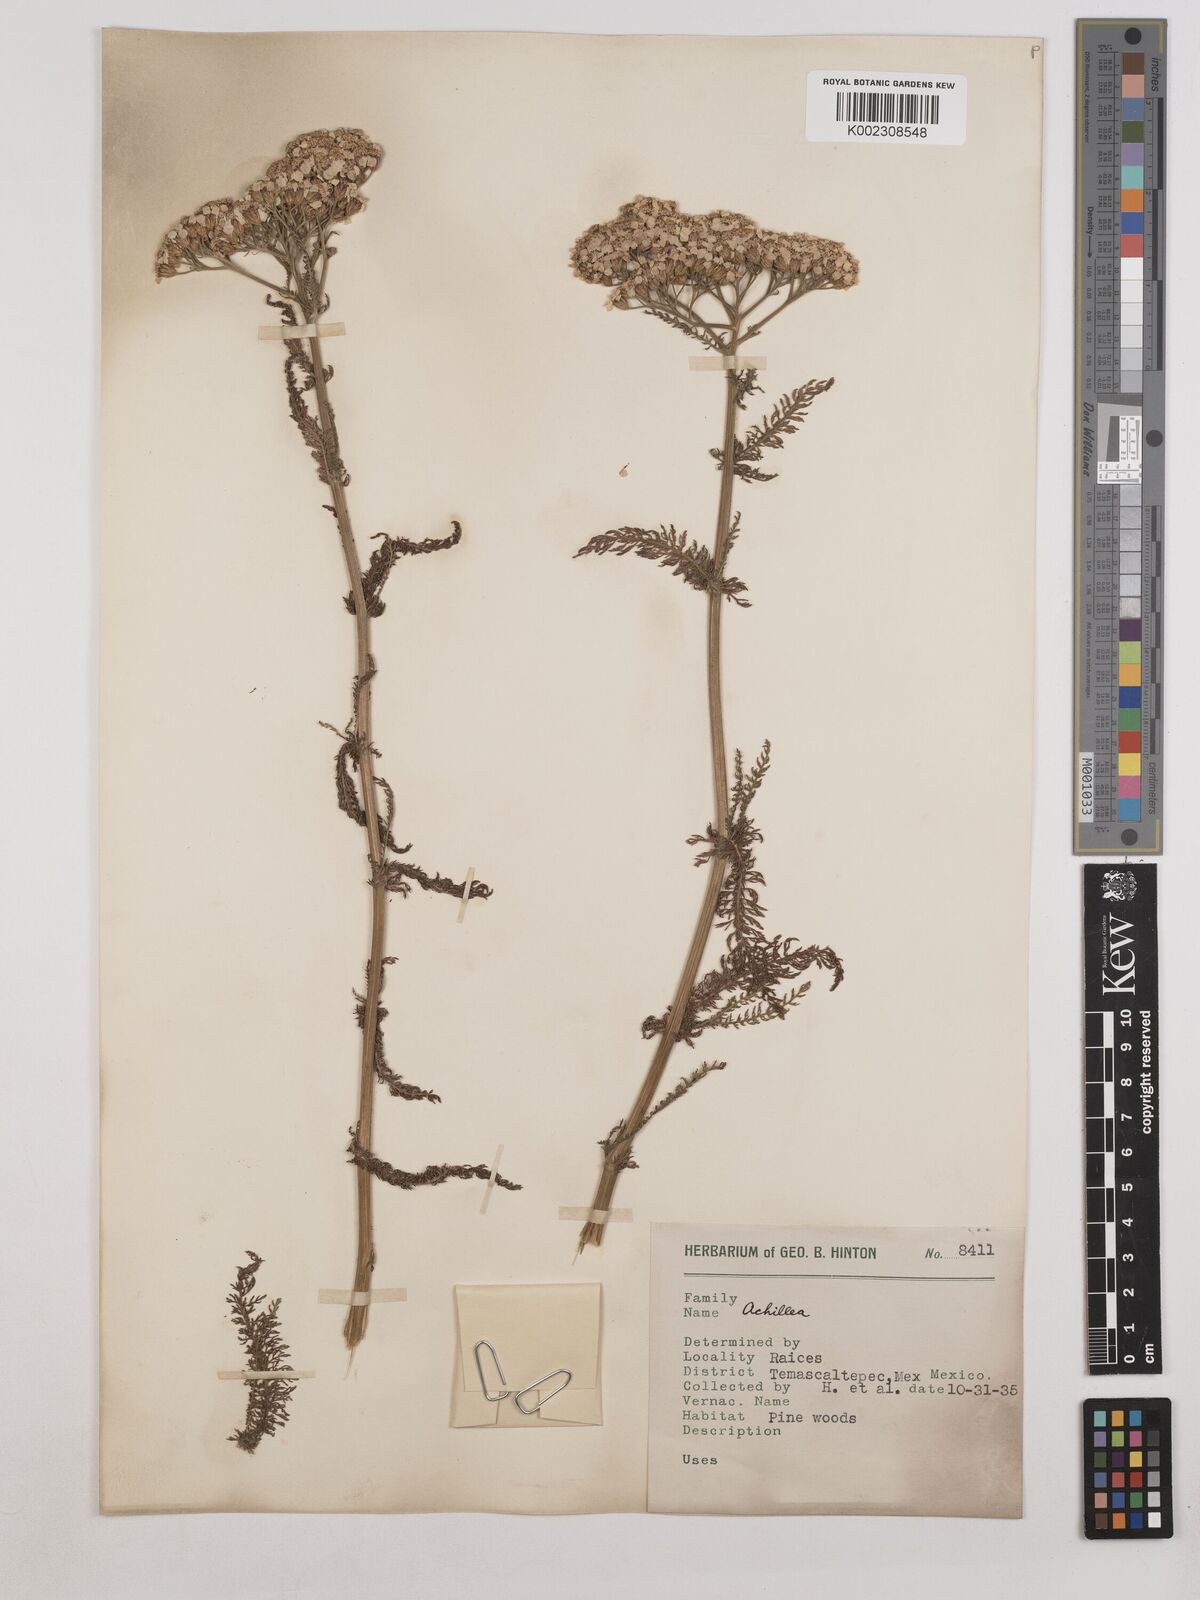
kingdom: Plantae
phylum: Tracheophyta
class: Magnoliopsida
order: Asterales
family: Asteraceae
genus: Achillea
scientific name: Achillea millefolium
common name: Yarrow
